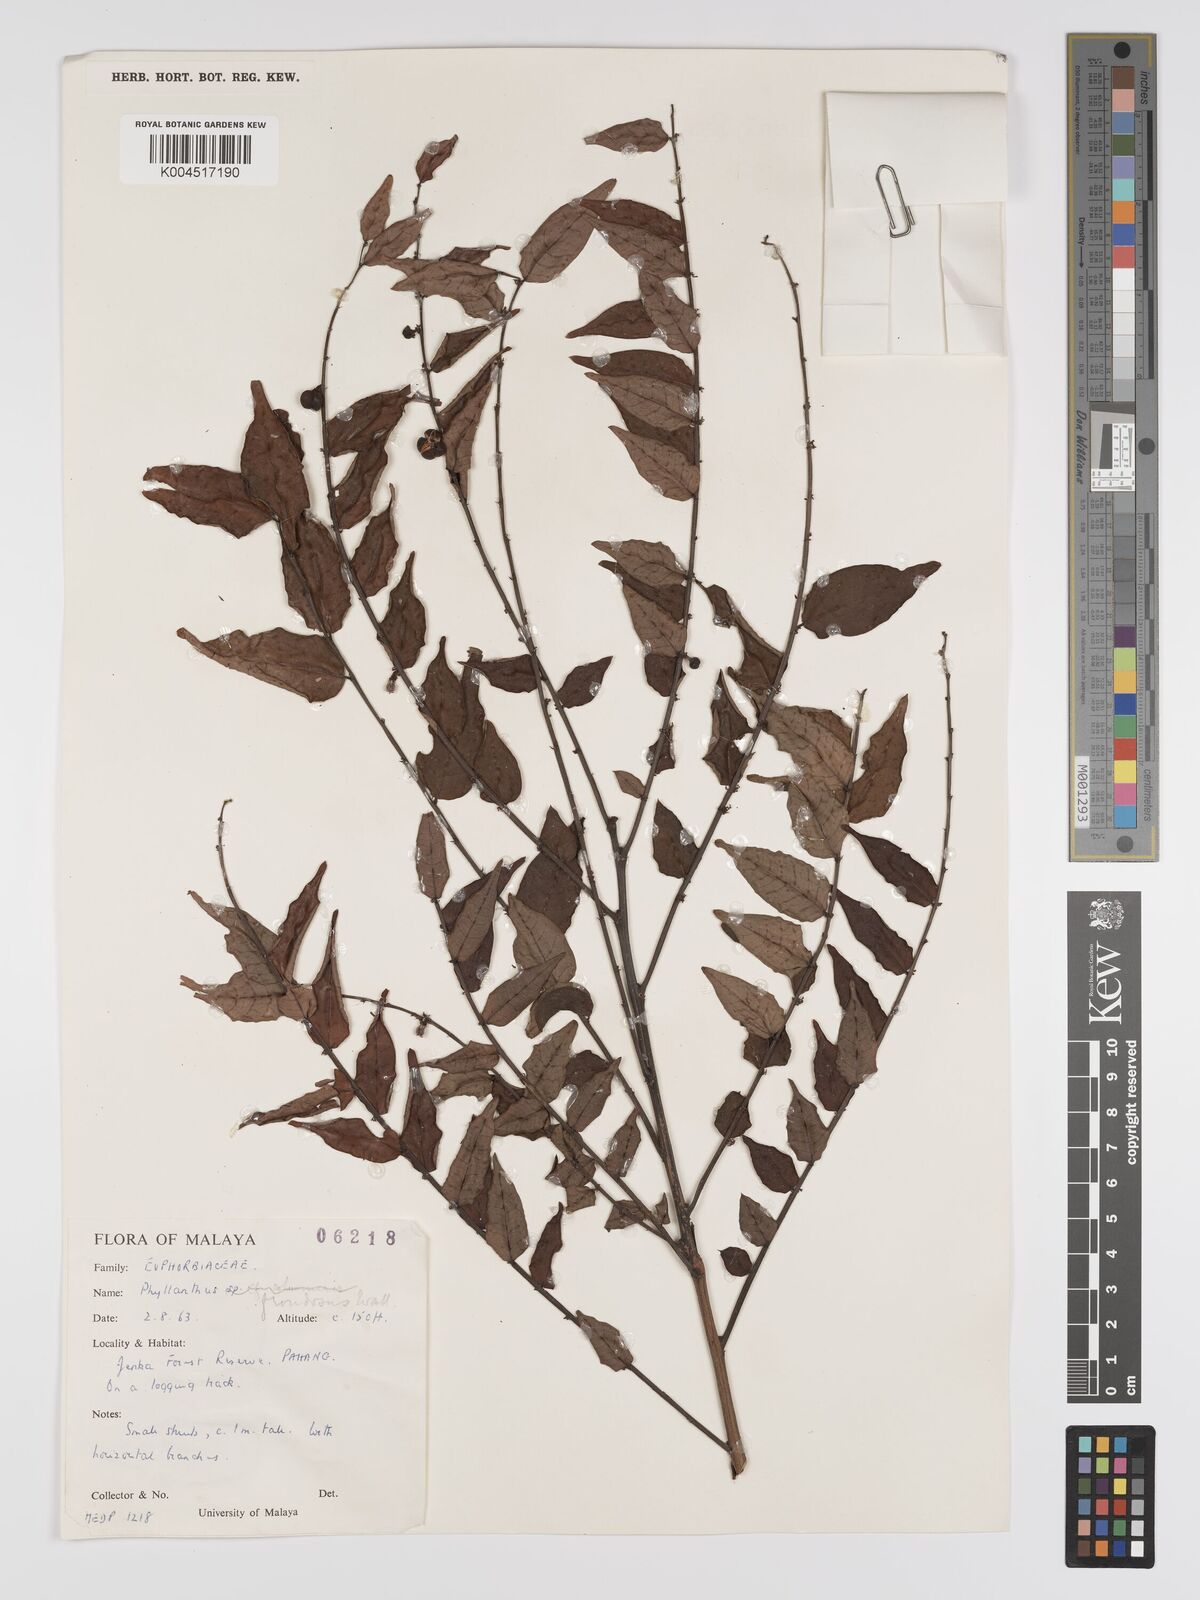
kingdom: Plantae
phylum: Tracheophyta
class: Magnoliopsida
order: Malpighiales
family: Phyllanthaceae
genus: Phyllanthus
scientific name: Phyllanthus
